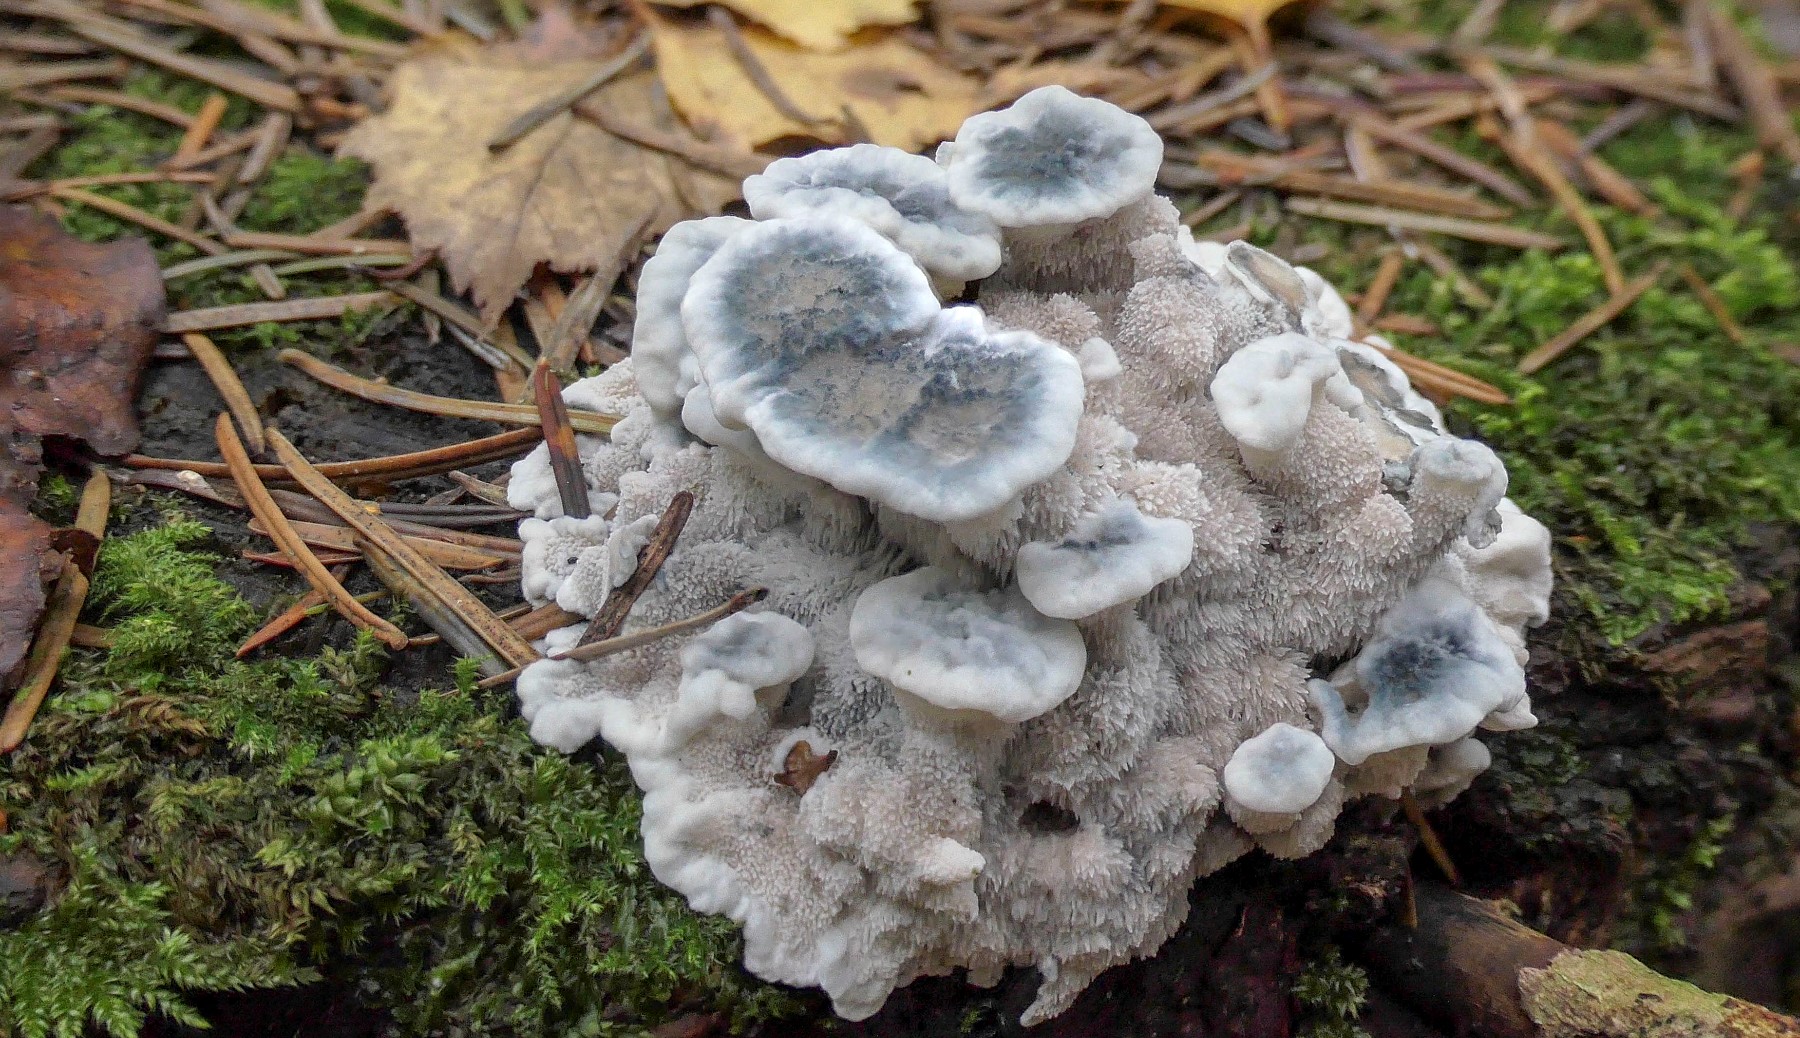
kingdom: Fungi
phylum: Basidiomycota
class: Agaricomycetes
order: Polyporales
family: Polyporaceae
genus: Cyanosporus
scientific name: Cyanosporus caesius
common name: blålig kødporesvamp
